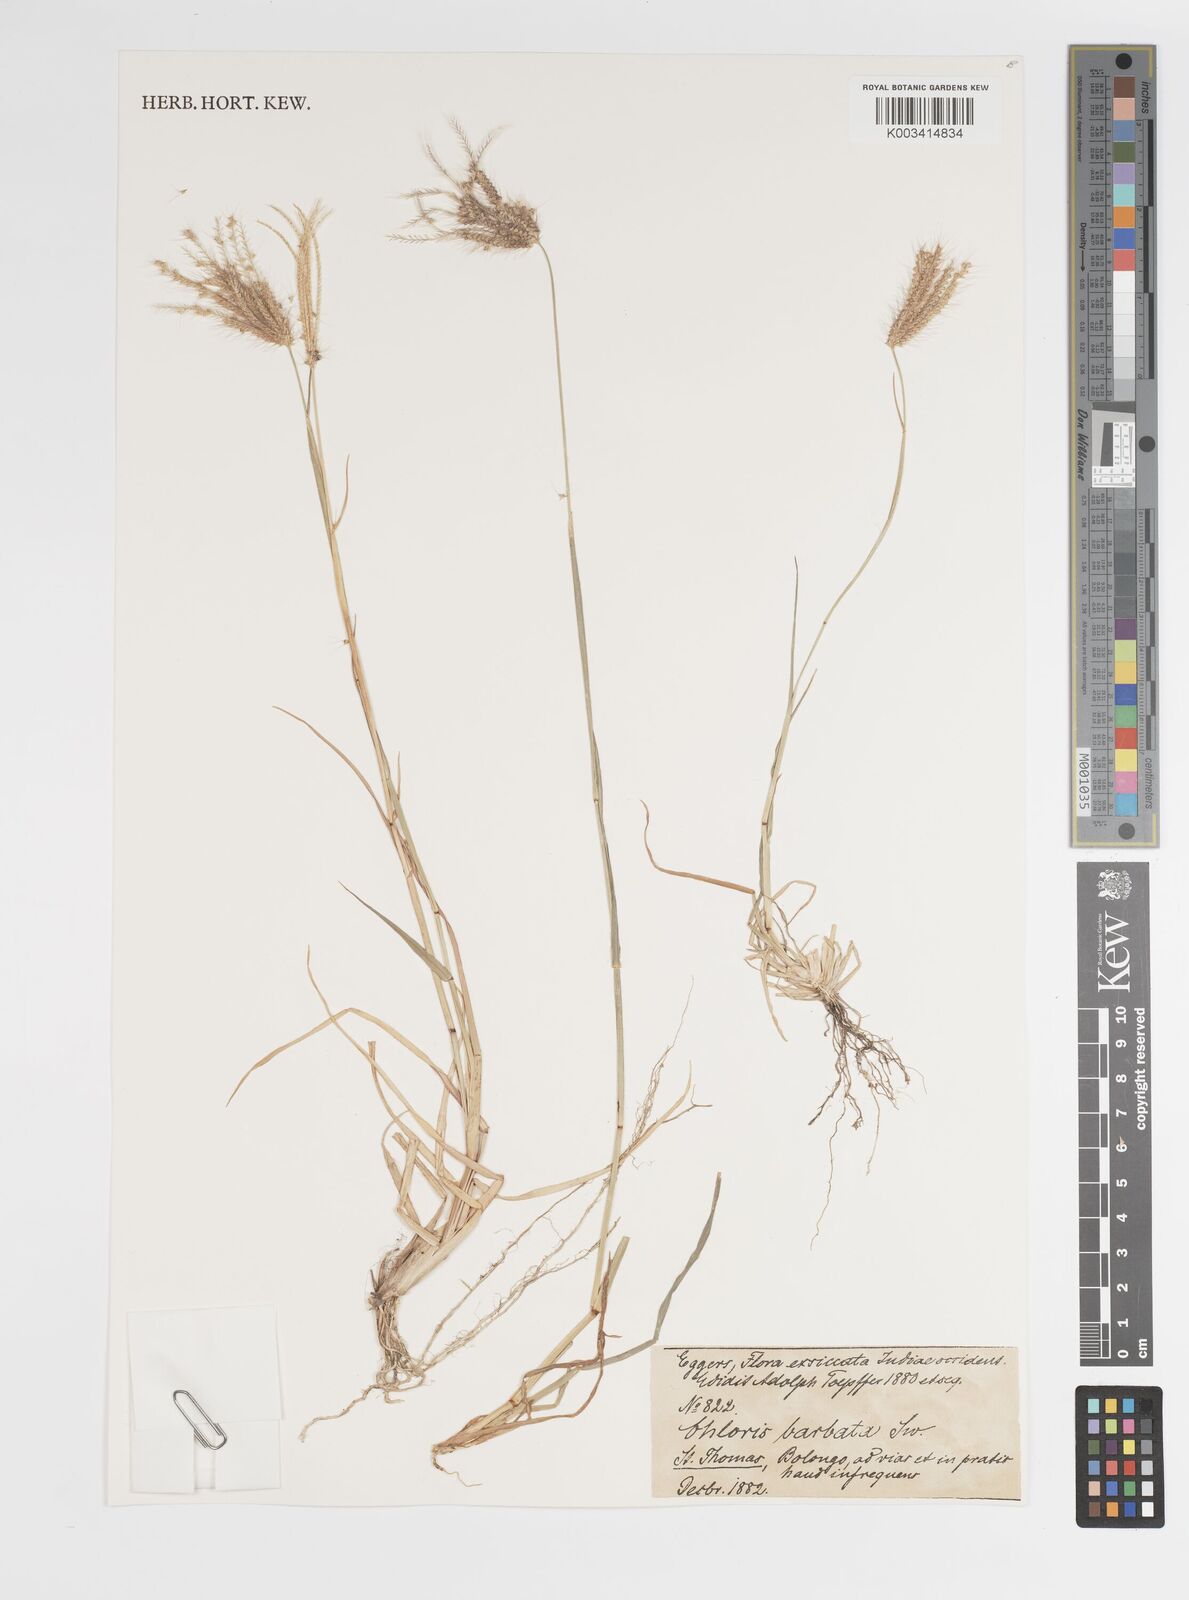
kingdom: Plantae
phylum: Tracheophyta
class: Liliopsida
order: Poales
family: Poaceae
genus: Chloris
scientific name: Chloris barbata
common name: Swollen fingergrass
